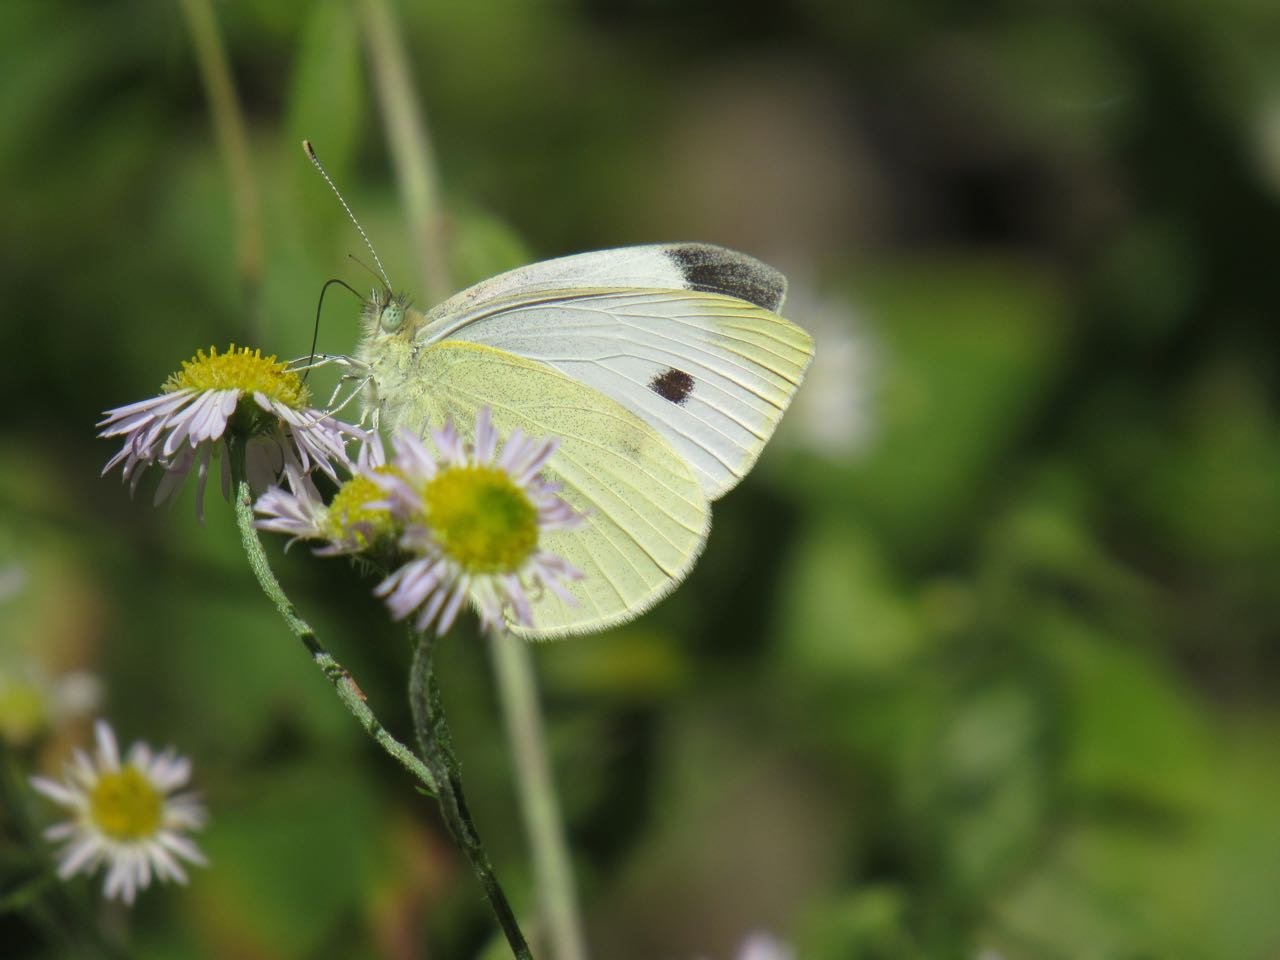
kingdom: Animalia
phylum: Arthropoda
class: Insecta
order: Lepidoptera
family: Pieridae
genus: Pieris
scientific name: Pieris rapae
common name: Cabbage White
